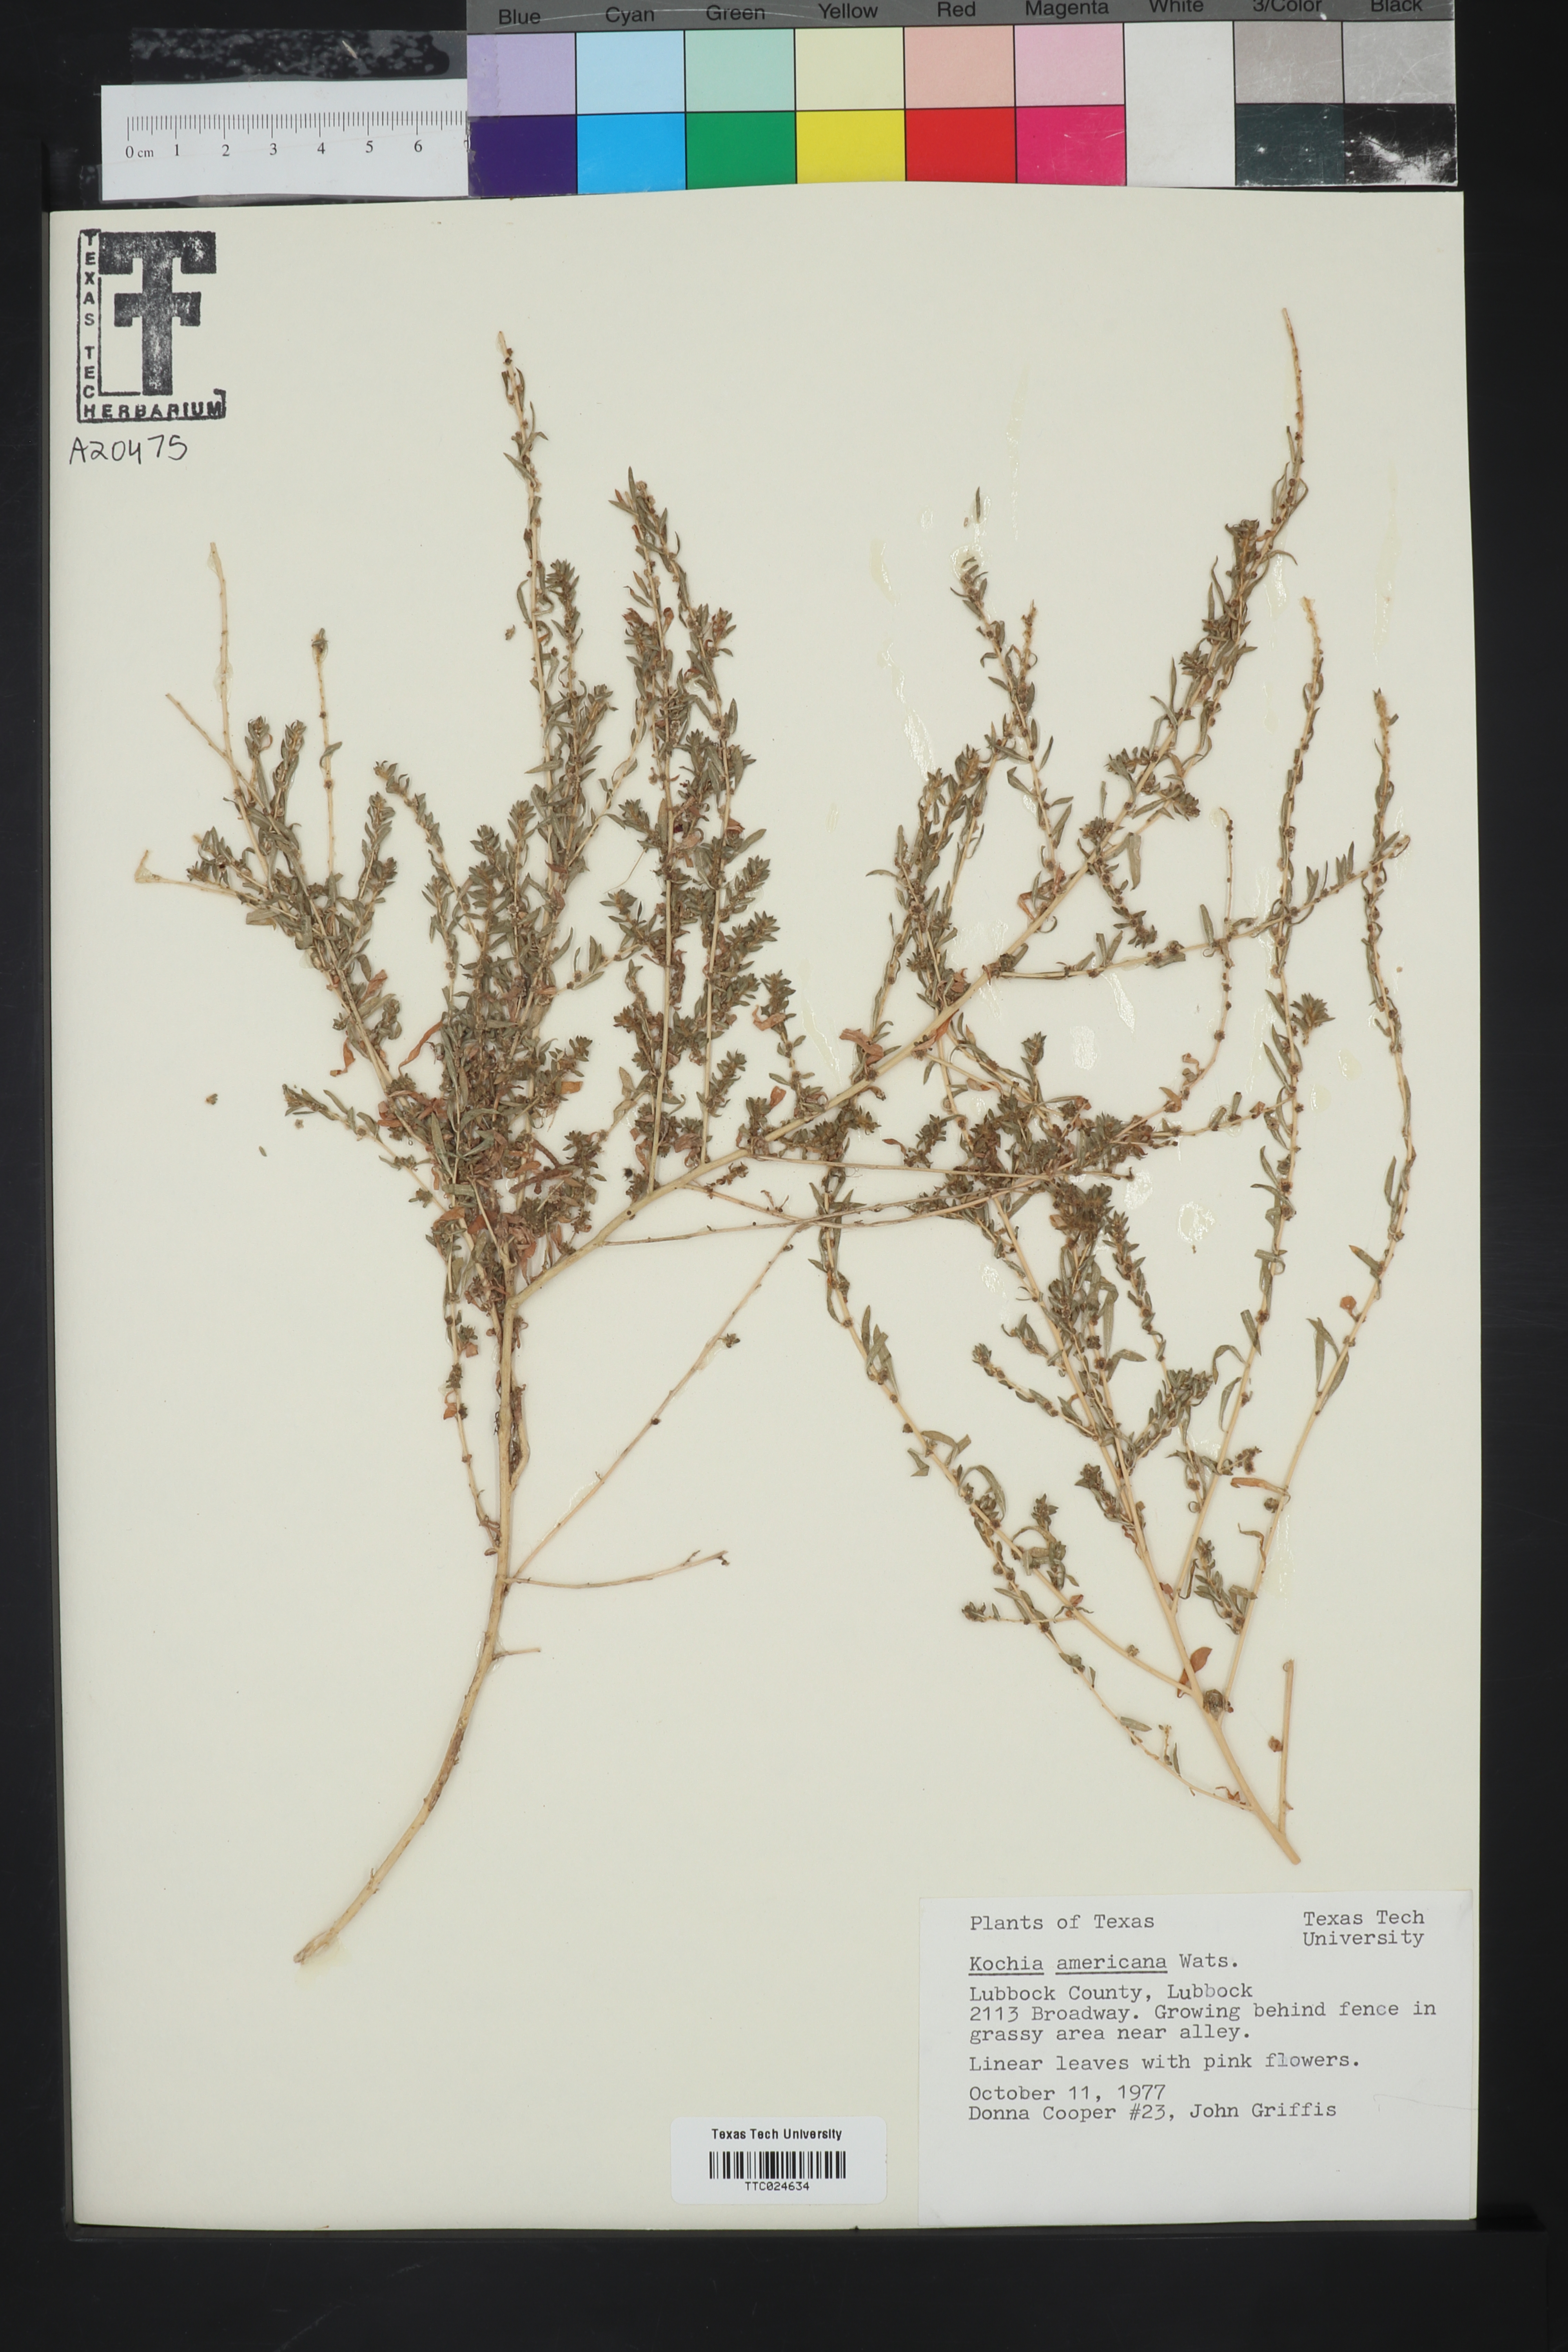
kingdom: Plantae
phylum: Tracheophyta
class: Magnoliopsida
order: Caryophyllales
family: Amaranthaceae
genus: Neokochia
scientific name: Neokochia americana
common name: Perennial summer-cypress
